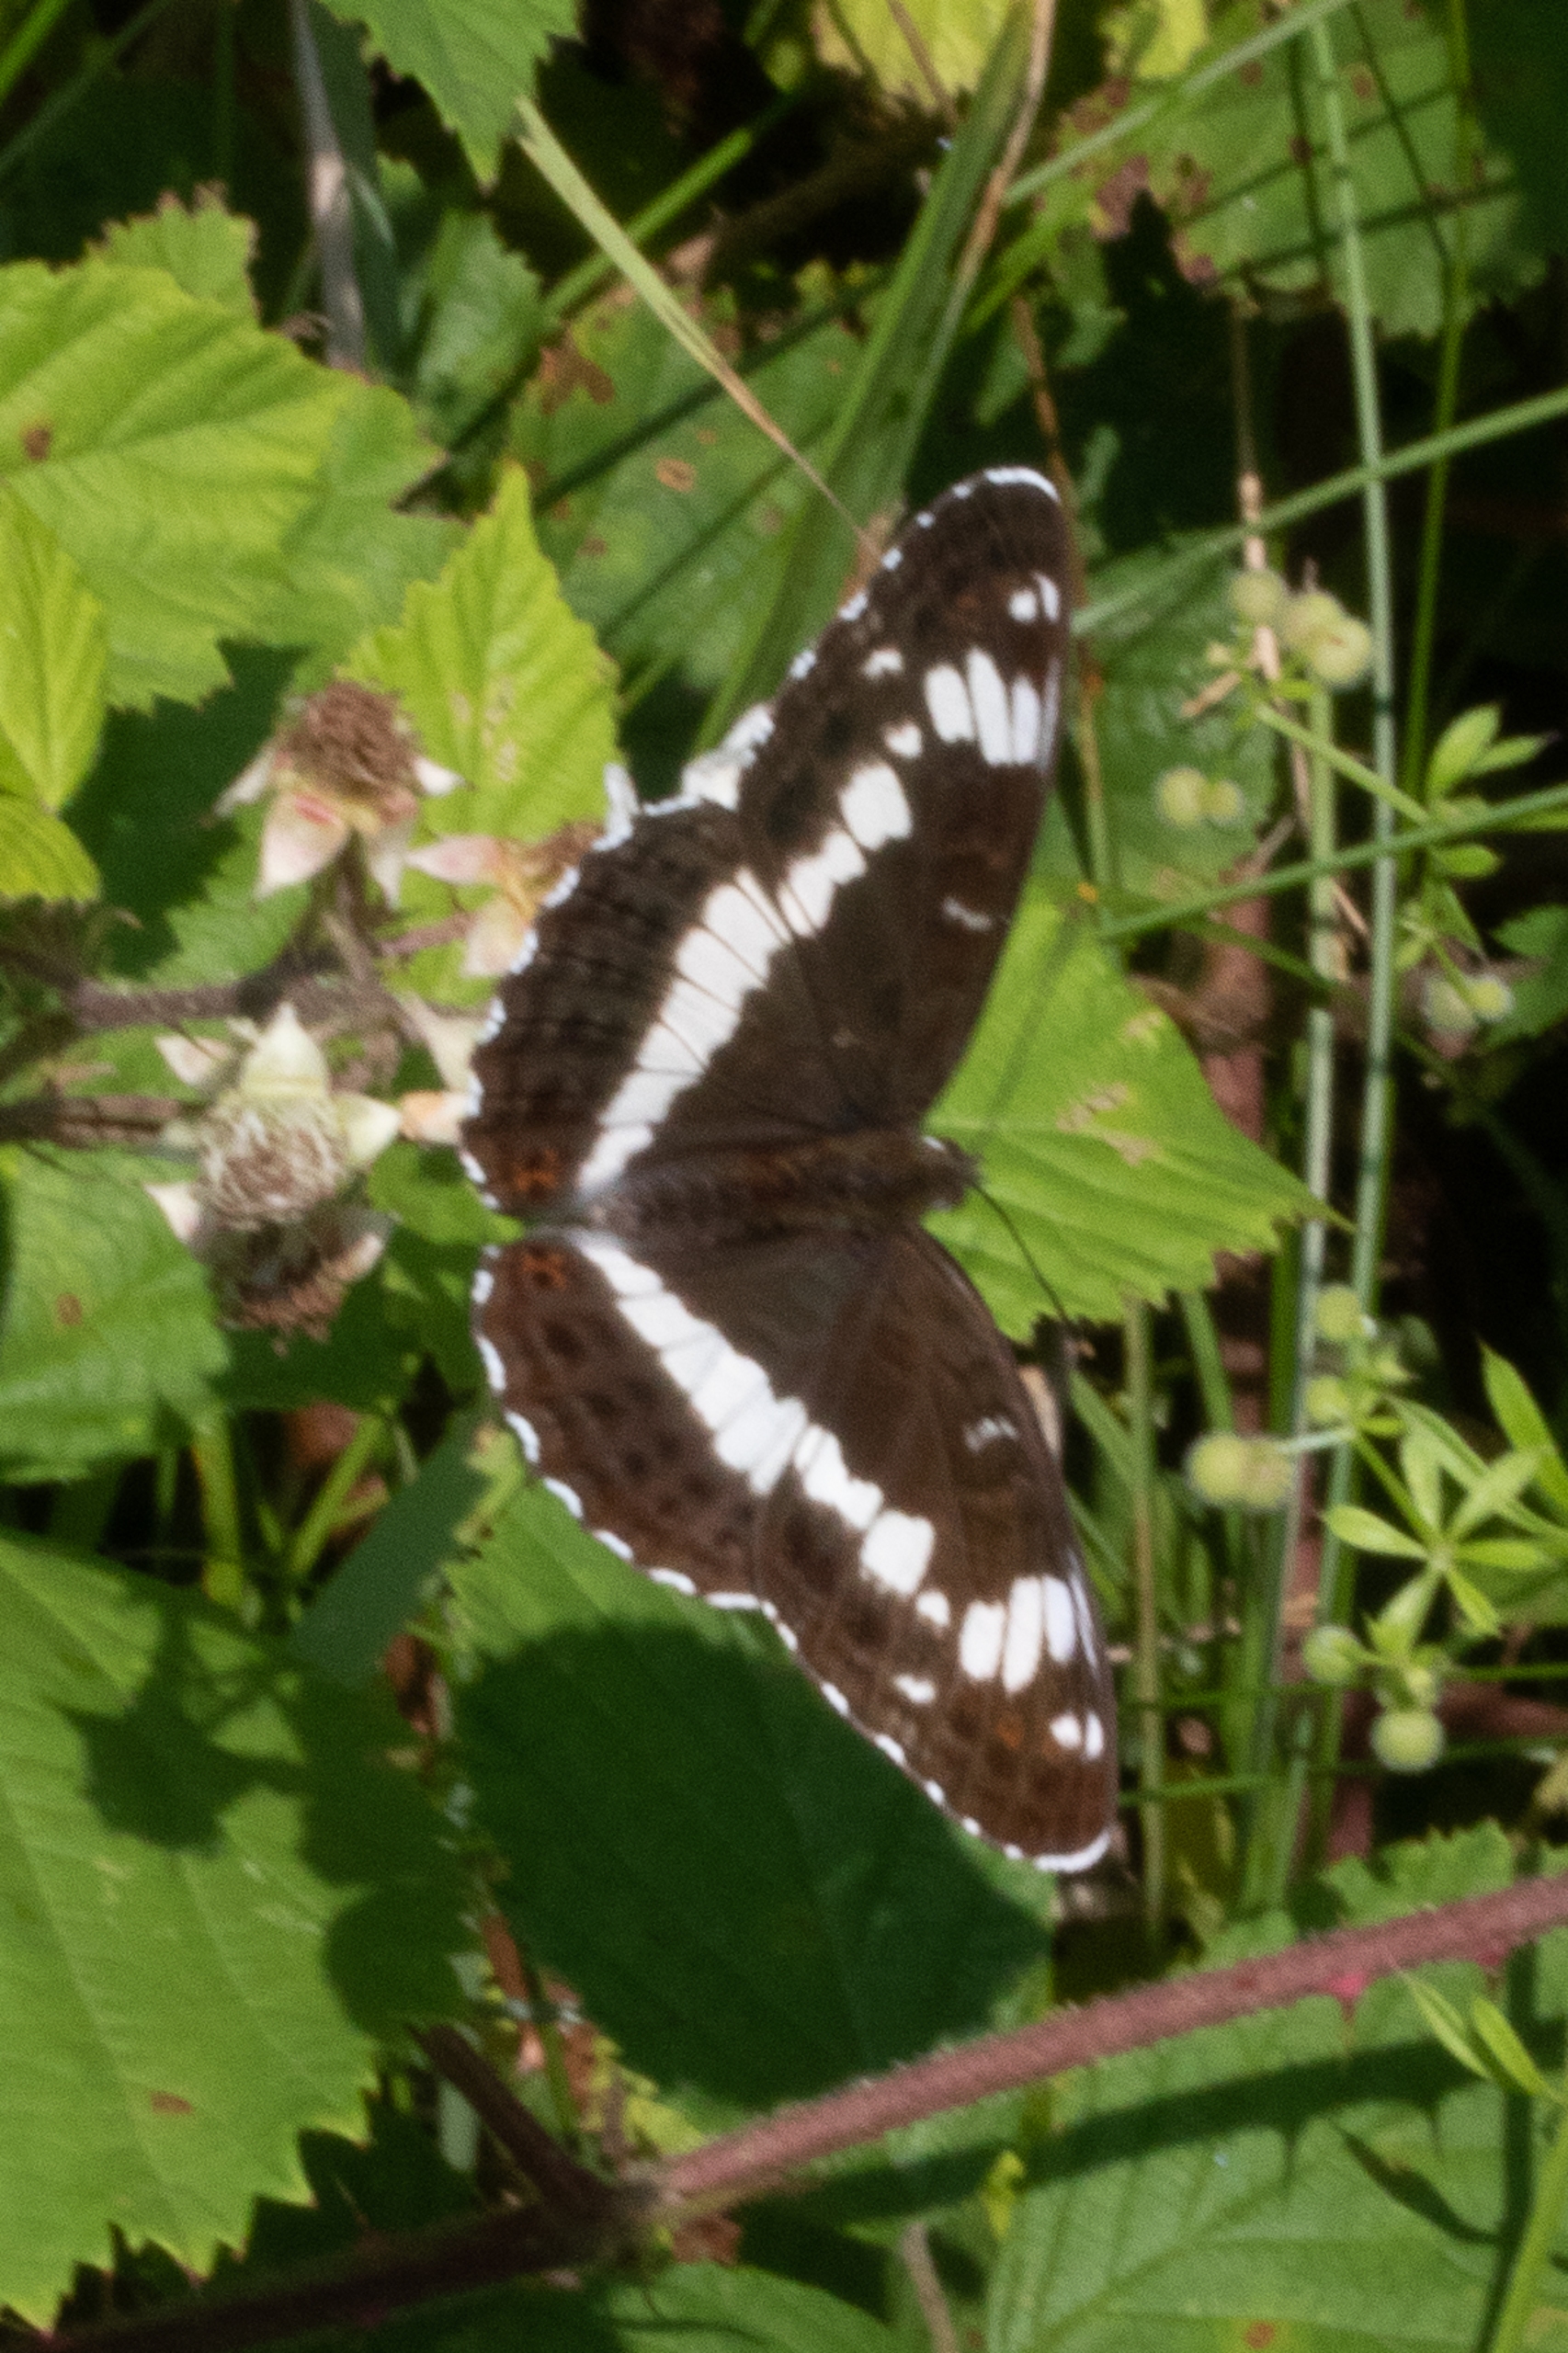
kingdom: Animalia
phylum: Arthropoda
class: Insecta
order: Lepidoptera
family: Nymphalidae
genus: Ladoga
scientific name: Ladoga camilla
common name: Hvid admiral
